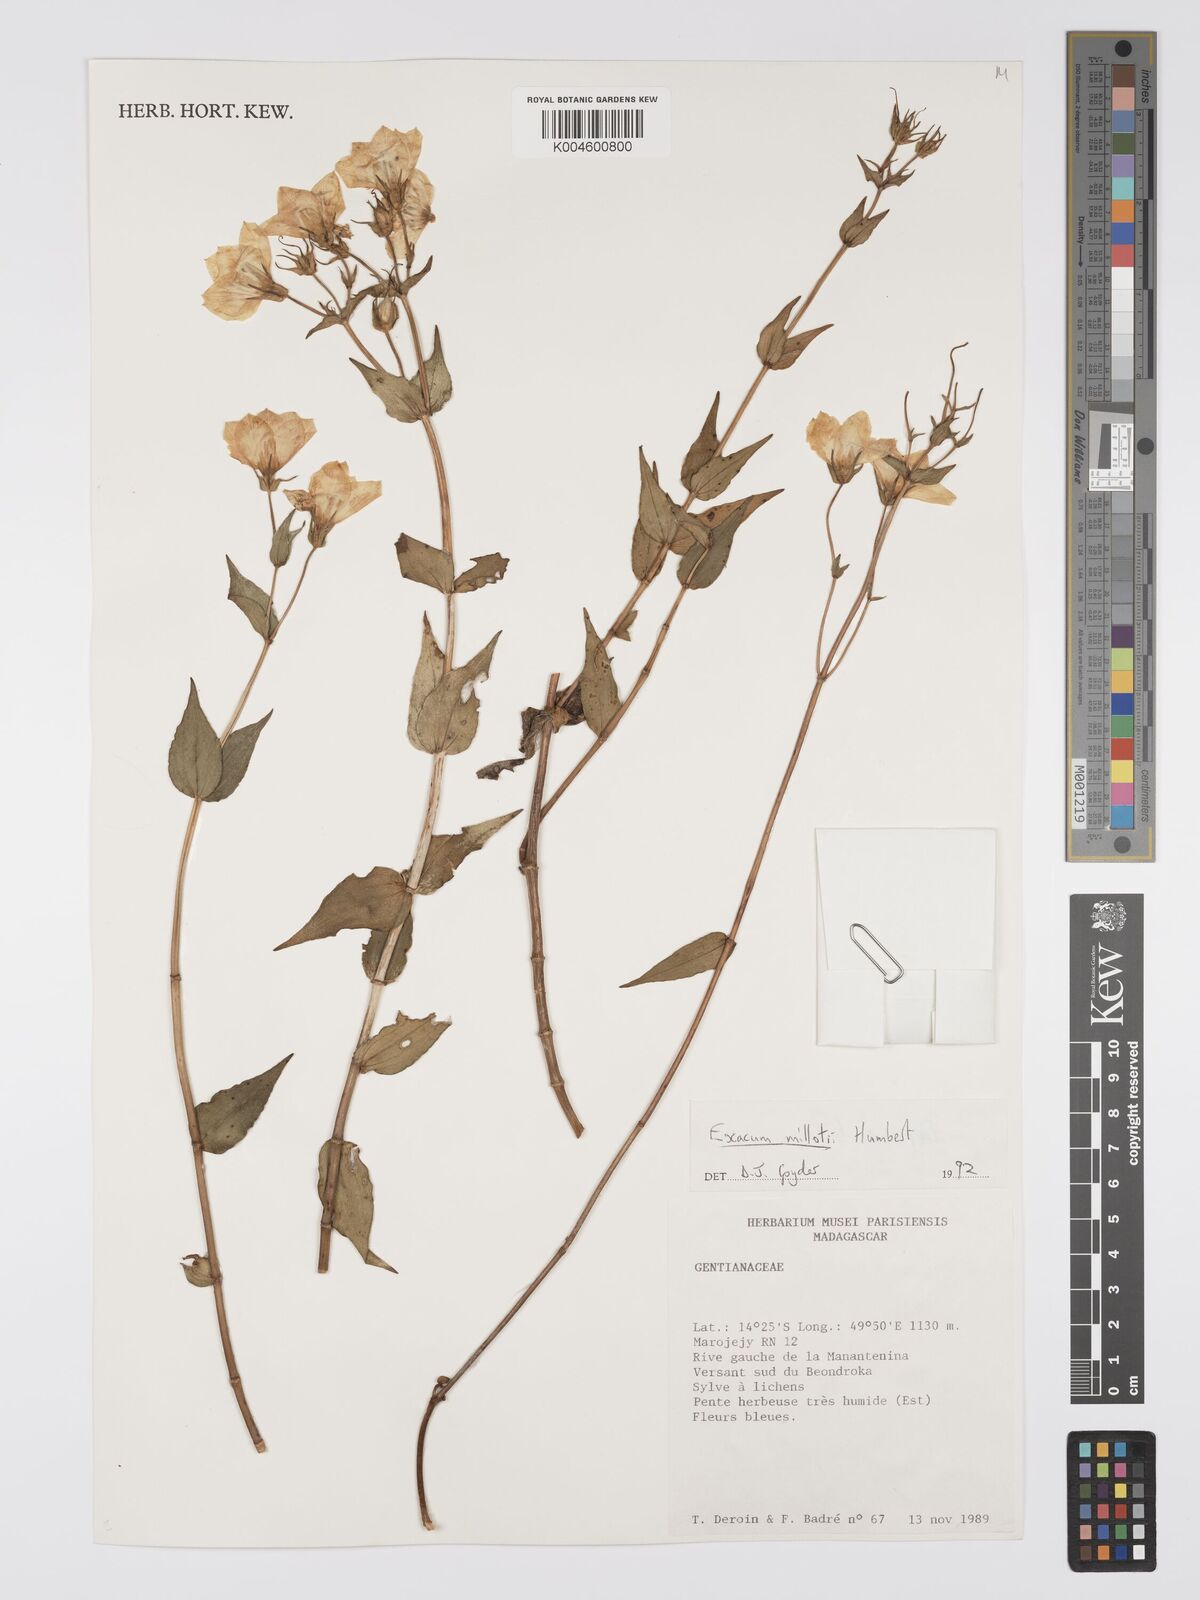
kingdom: Plantae
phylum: Tracheophyta
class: Magnoliopsida
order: Gentianales
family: Gentianaceae
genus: Exacum
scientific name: Exacum millotii
